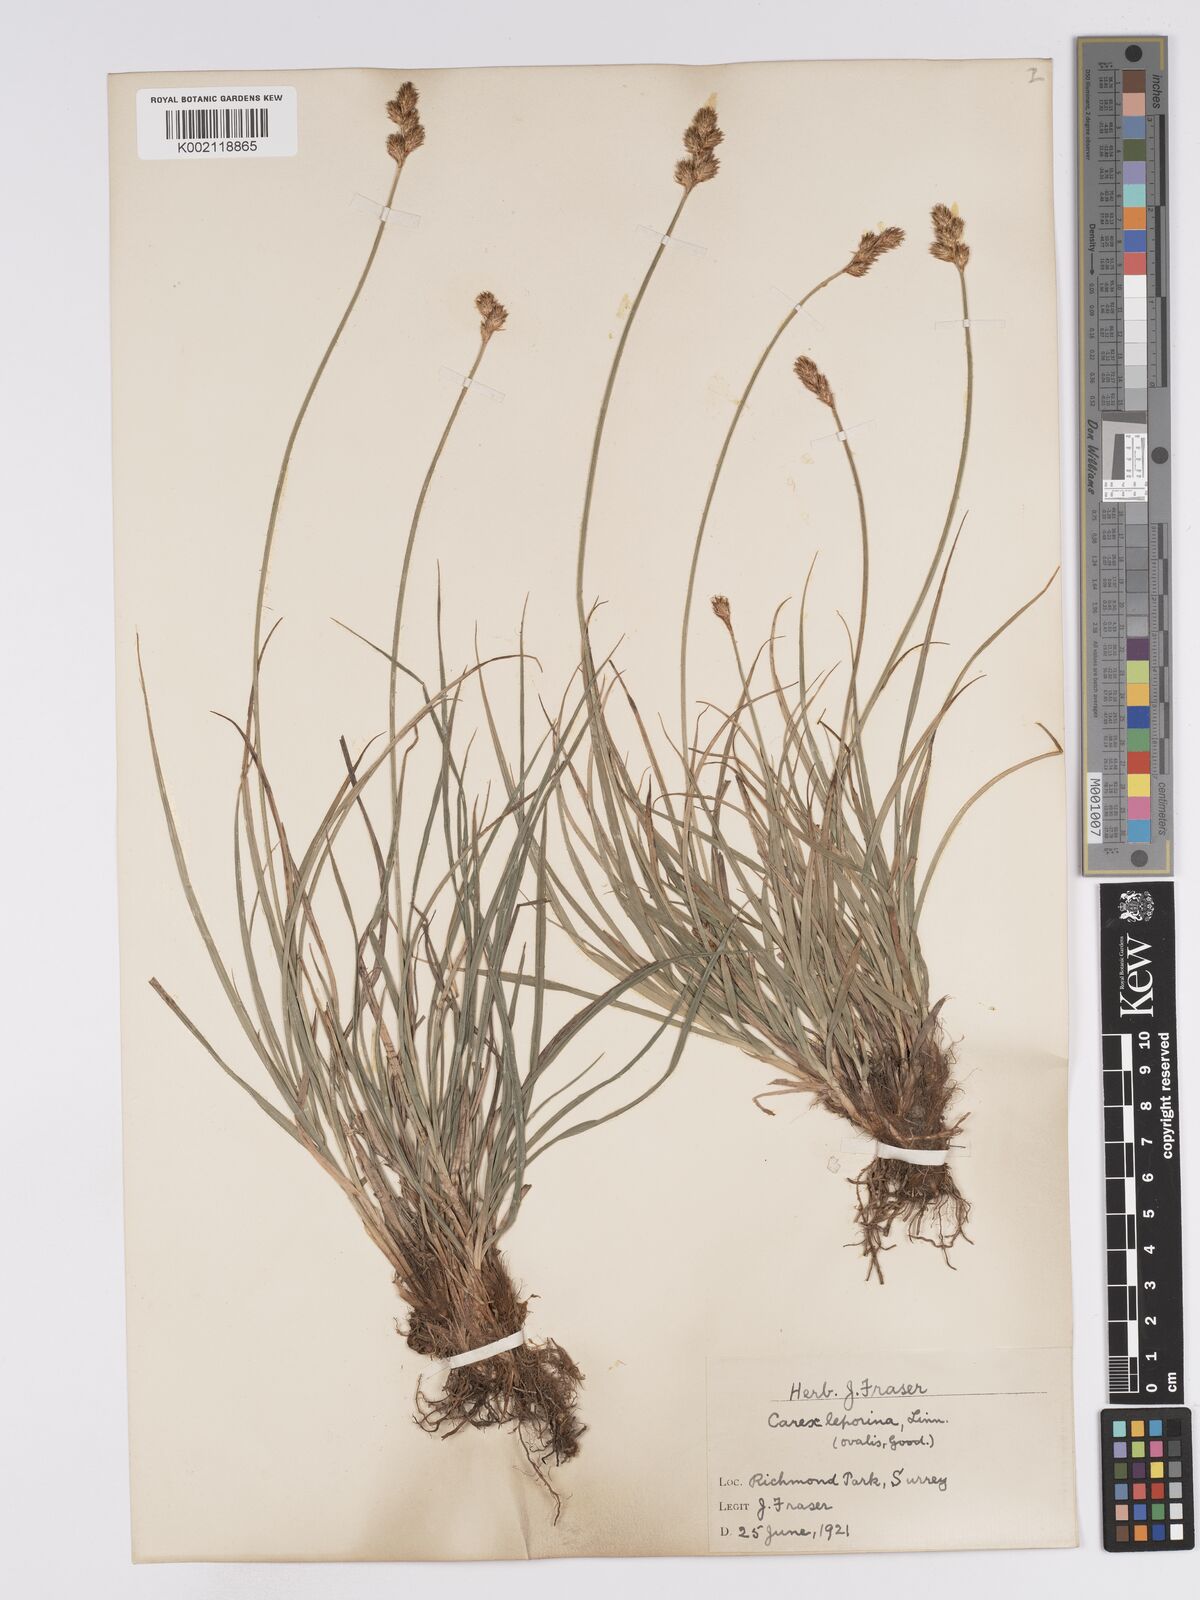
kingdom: Plantae
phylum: Tracheophyta
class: Liliopsida
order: Poales
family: Cyperaceae
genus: Carex
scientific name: Carex leporina
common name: Oval sedge
